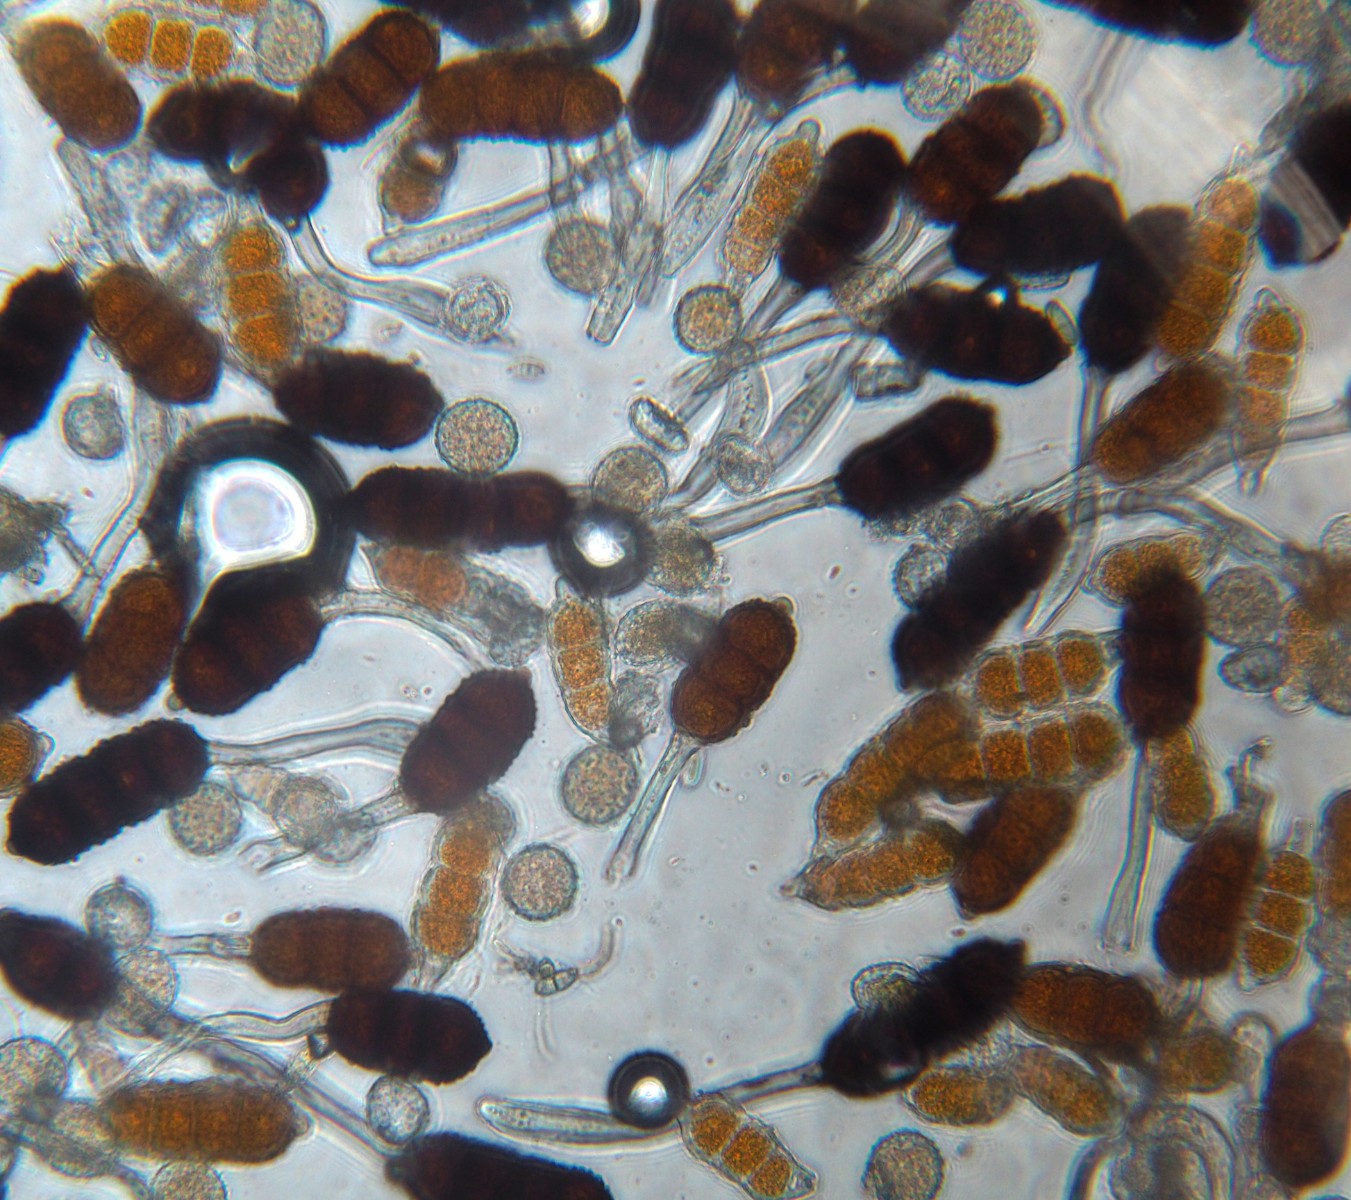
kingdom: Fungi
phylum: Basidiomycota
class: Pucciniomycetes
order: Pucciniales
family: Phragmidiaceae
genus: Phragmidium
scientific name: Phragmidium violaceum
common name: violet flercellerust
